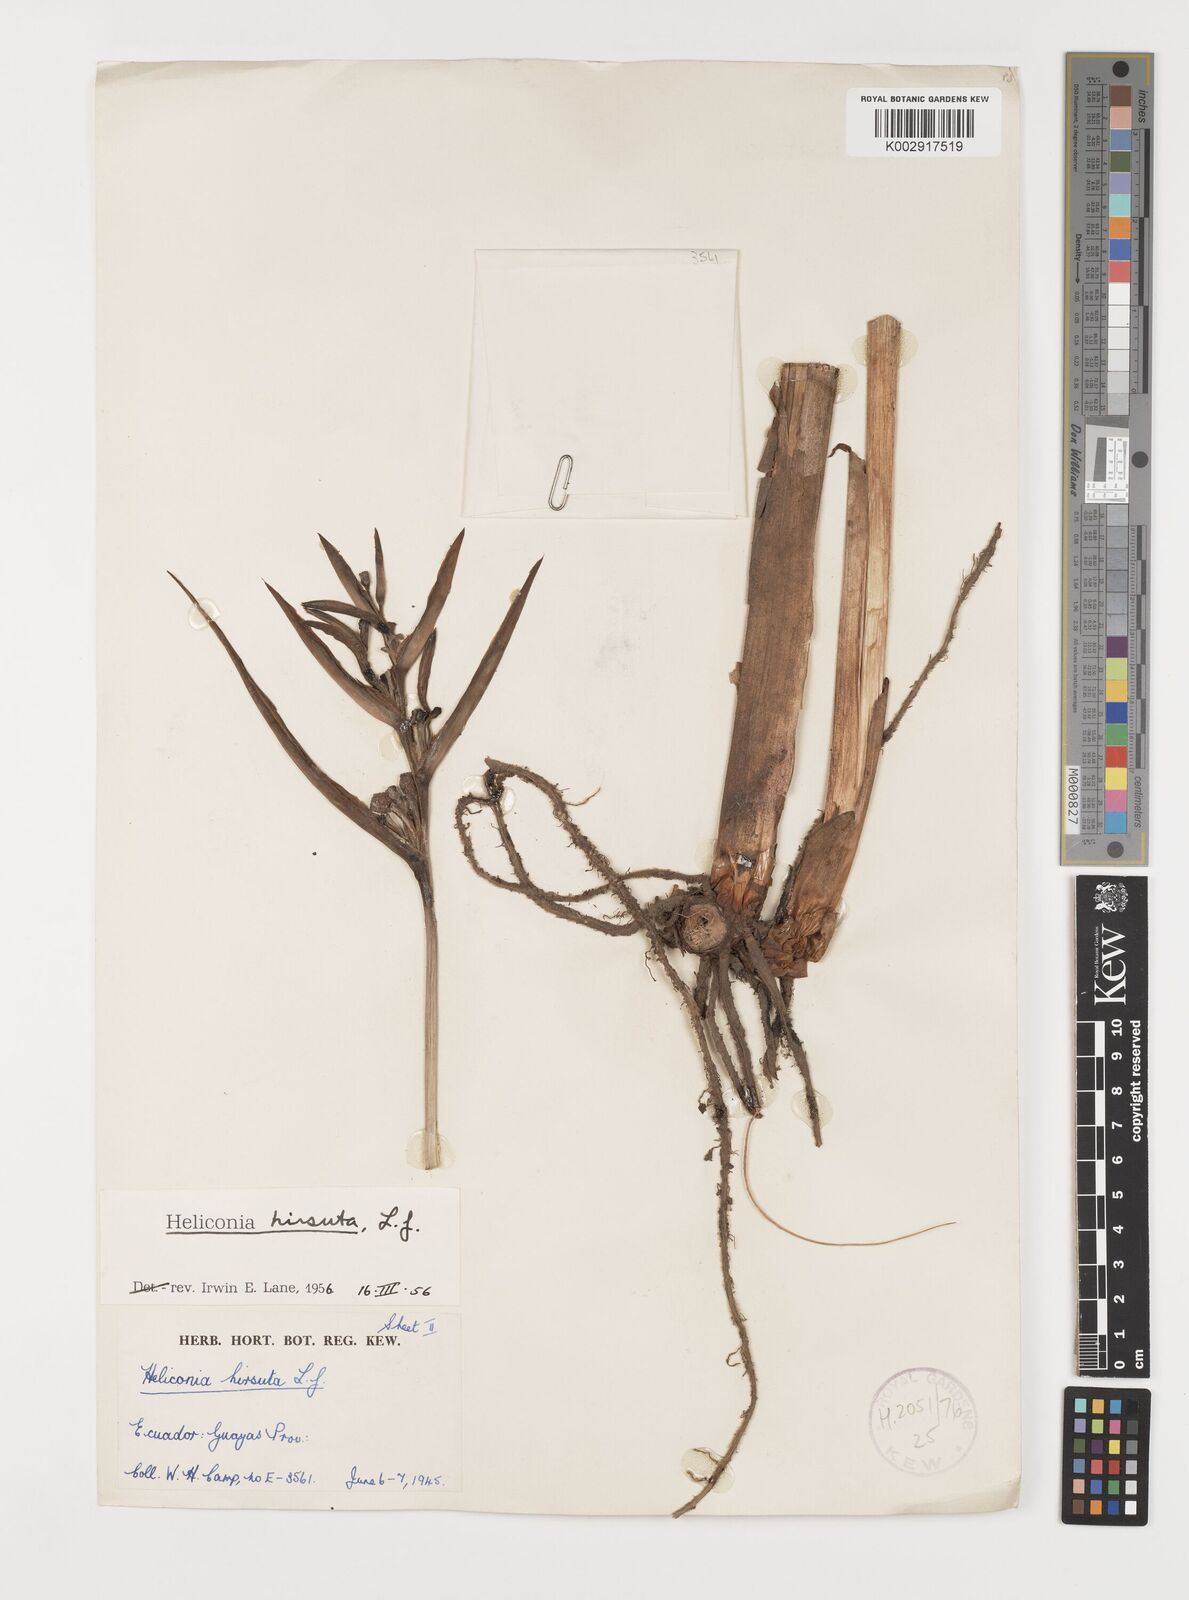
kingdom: Plantae
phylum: Tracheophyta
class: Liliopsida
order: Zingiberales
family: Heliconiaceae
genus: Heliconia
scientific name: Heliconia hirsuta
